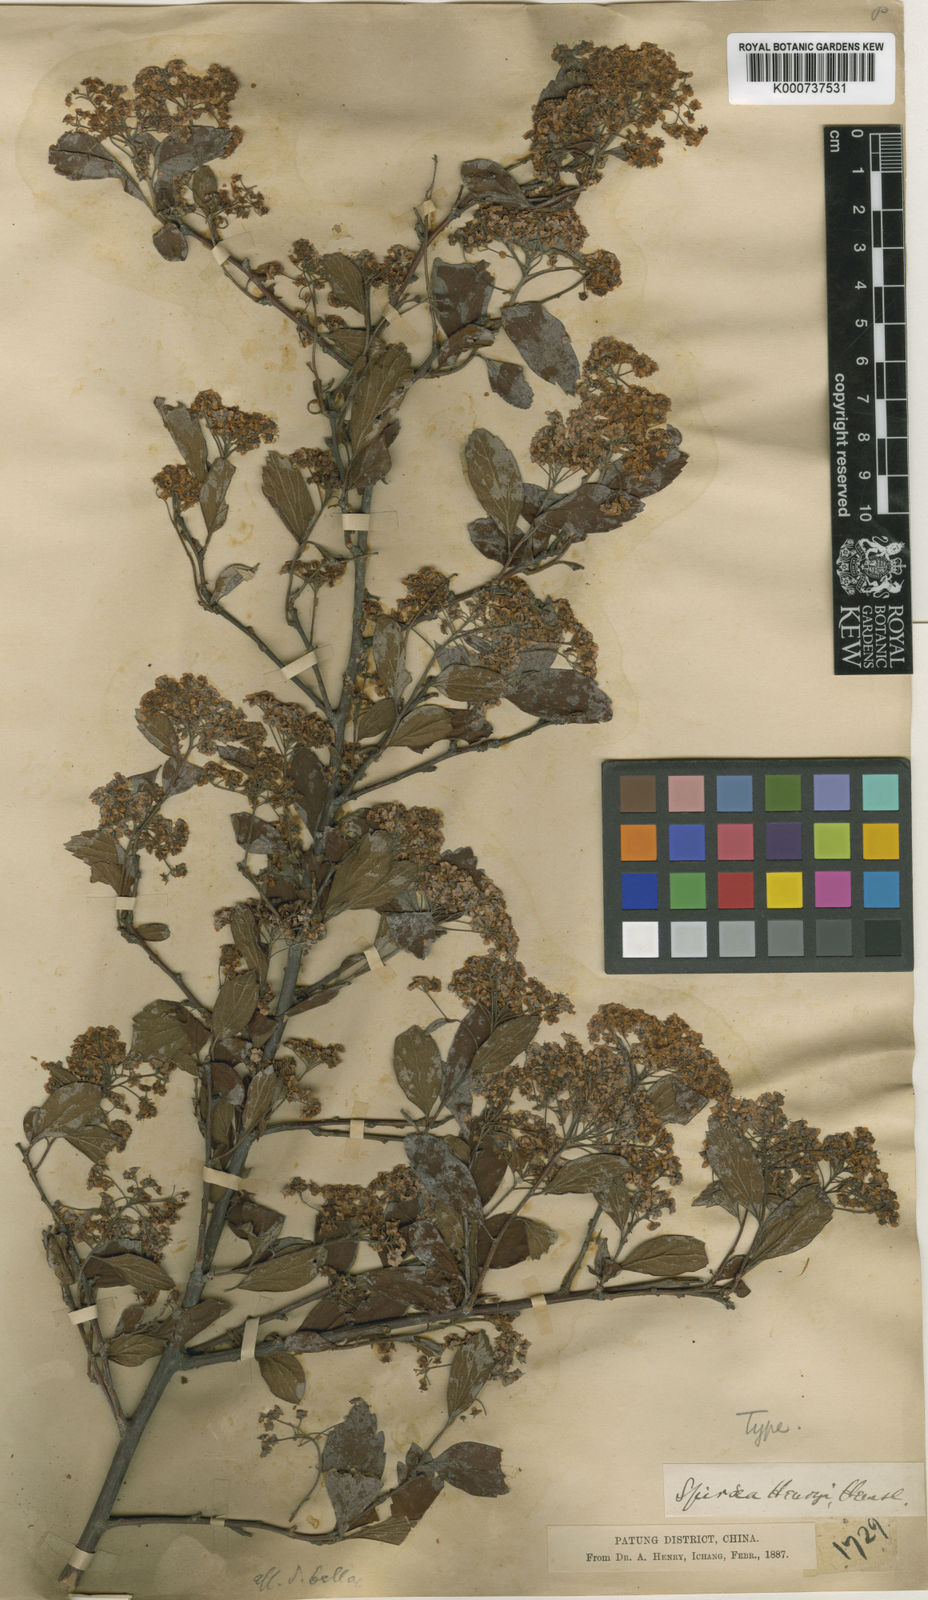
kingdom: Plantae
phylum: Tracheophyta
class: Magnoliopsida
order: Rosales
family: Rosaceae
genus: Spiraea
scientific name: Spiraea henryi
